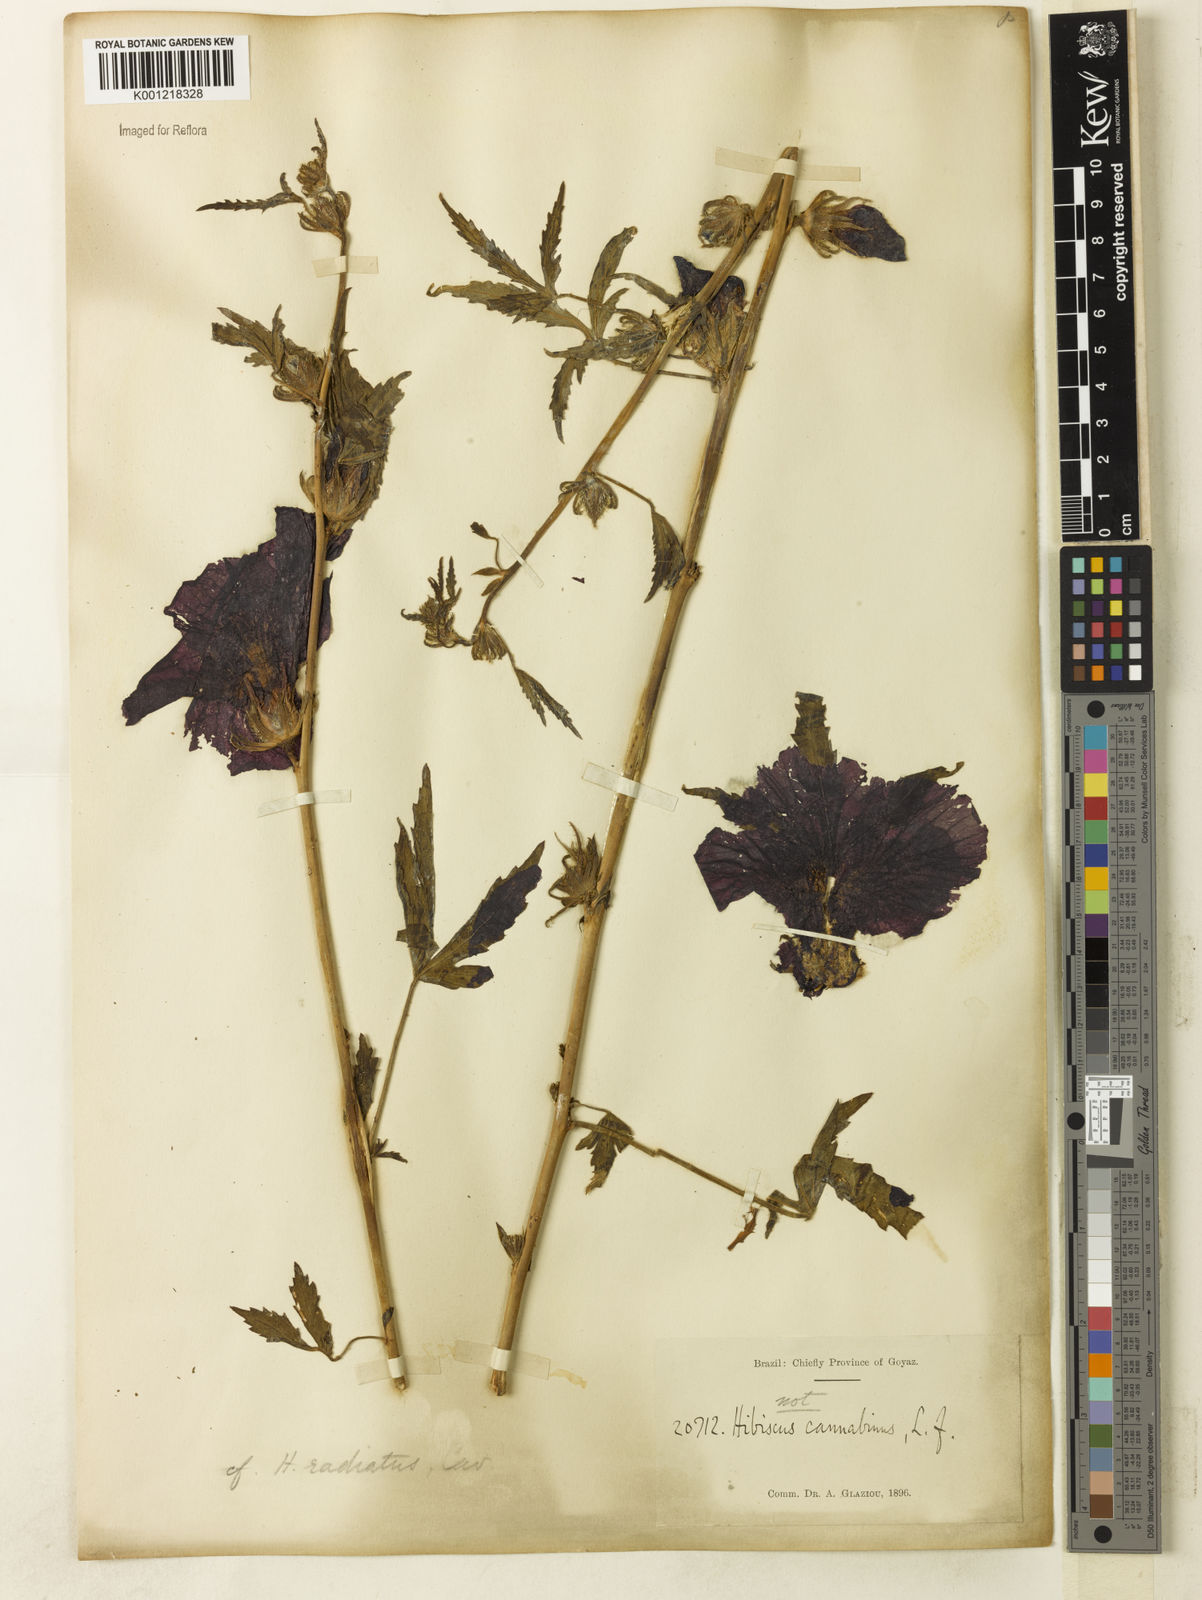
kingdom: Plantae
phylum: Tracheophyta
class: Magnoliopsida
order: Malvales
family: Malvaceae
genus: Hibiscus
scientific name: Hibiscus radiatus
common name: Monarch rosemallow
